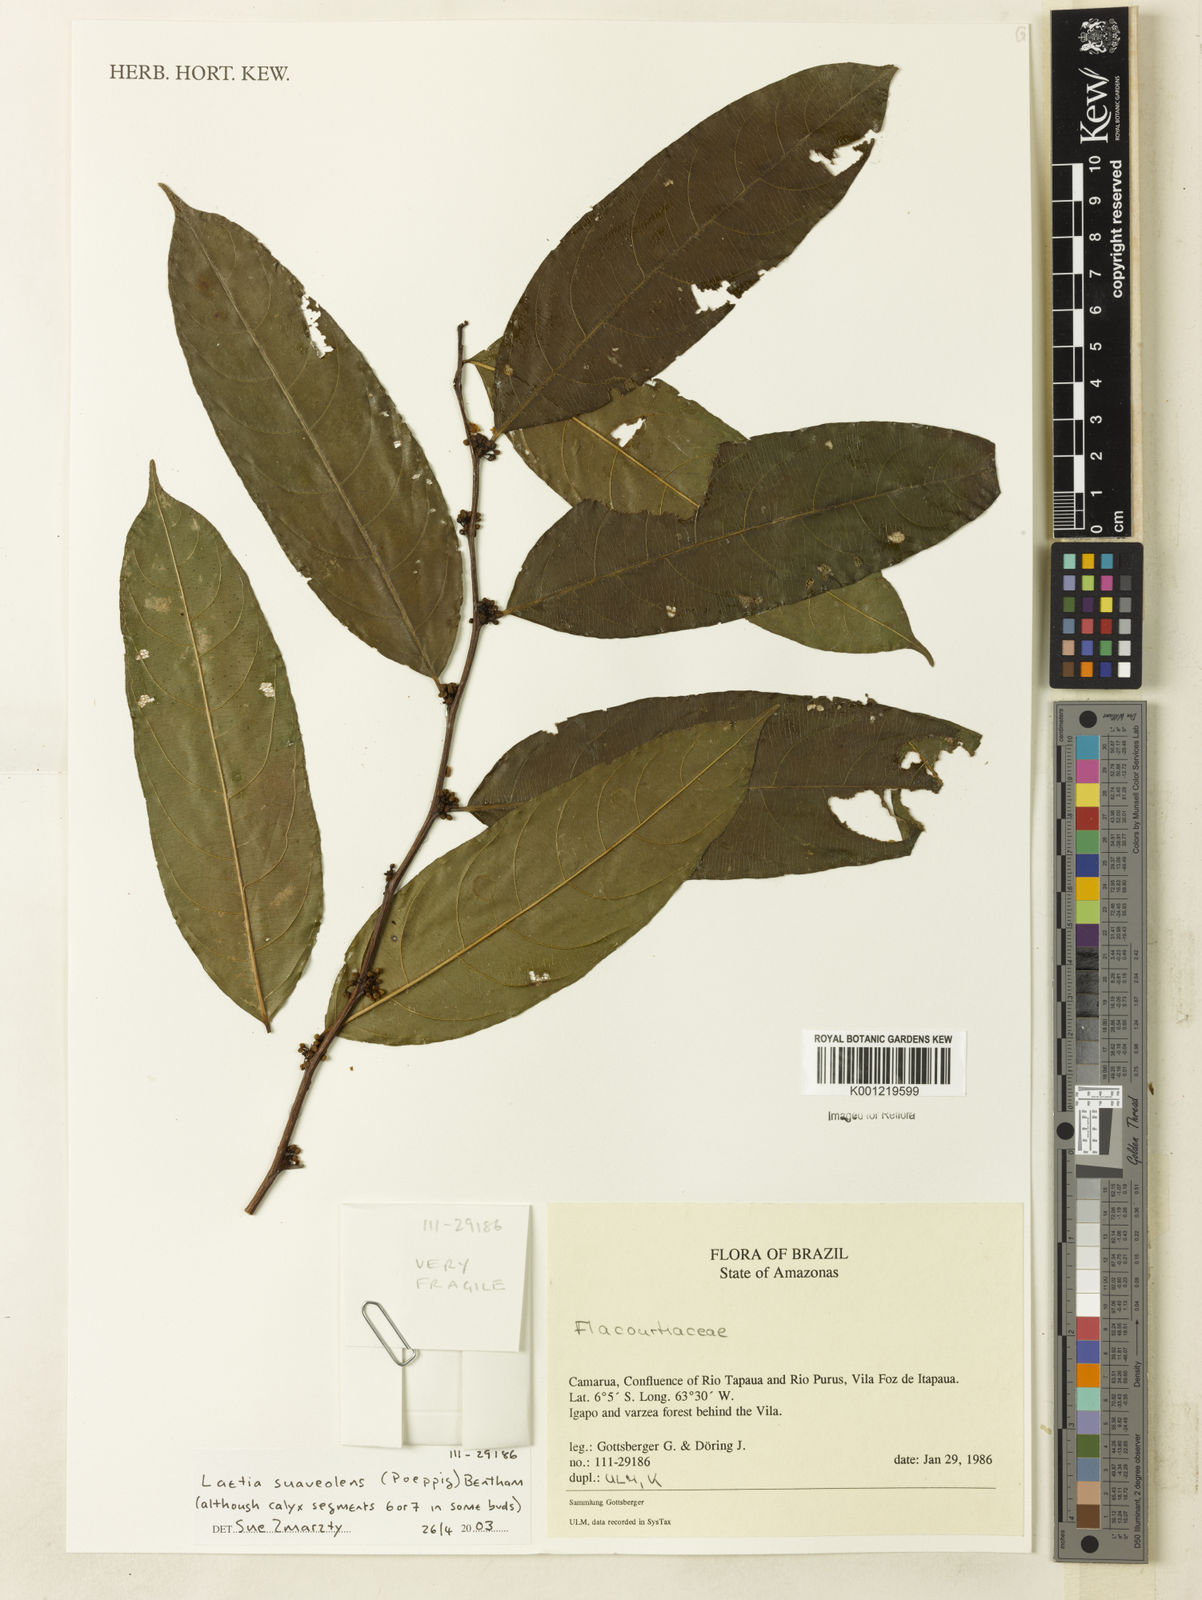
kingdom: Plantae
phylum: Tracheophyta
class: Magnoliopsida
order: Malpighiales
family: Salicaceae
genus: Casearia
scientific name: Casearia suaveolens
